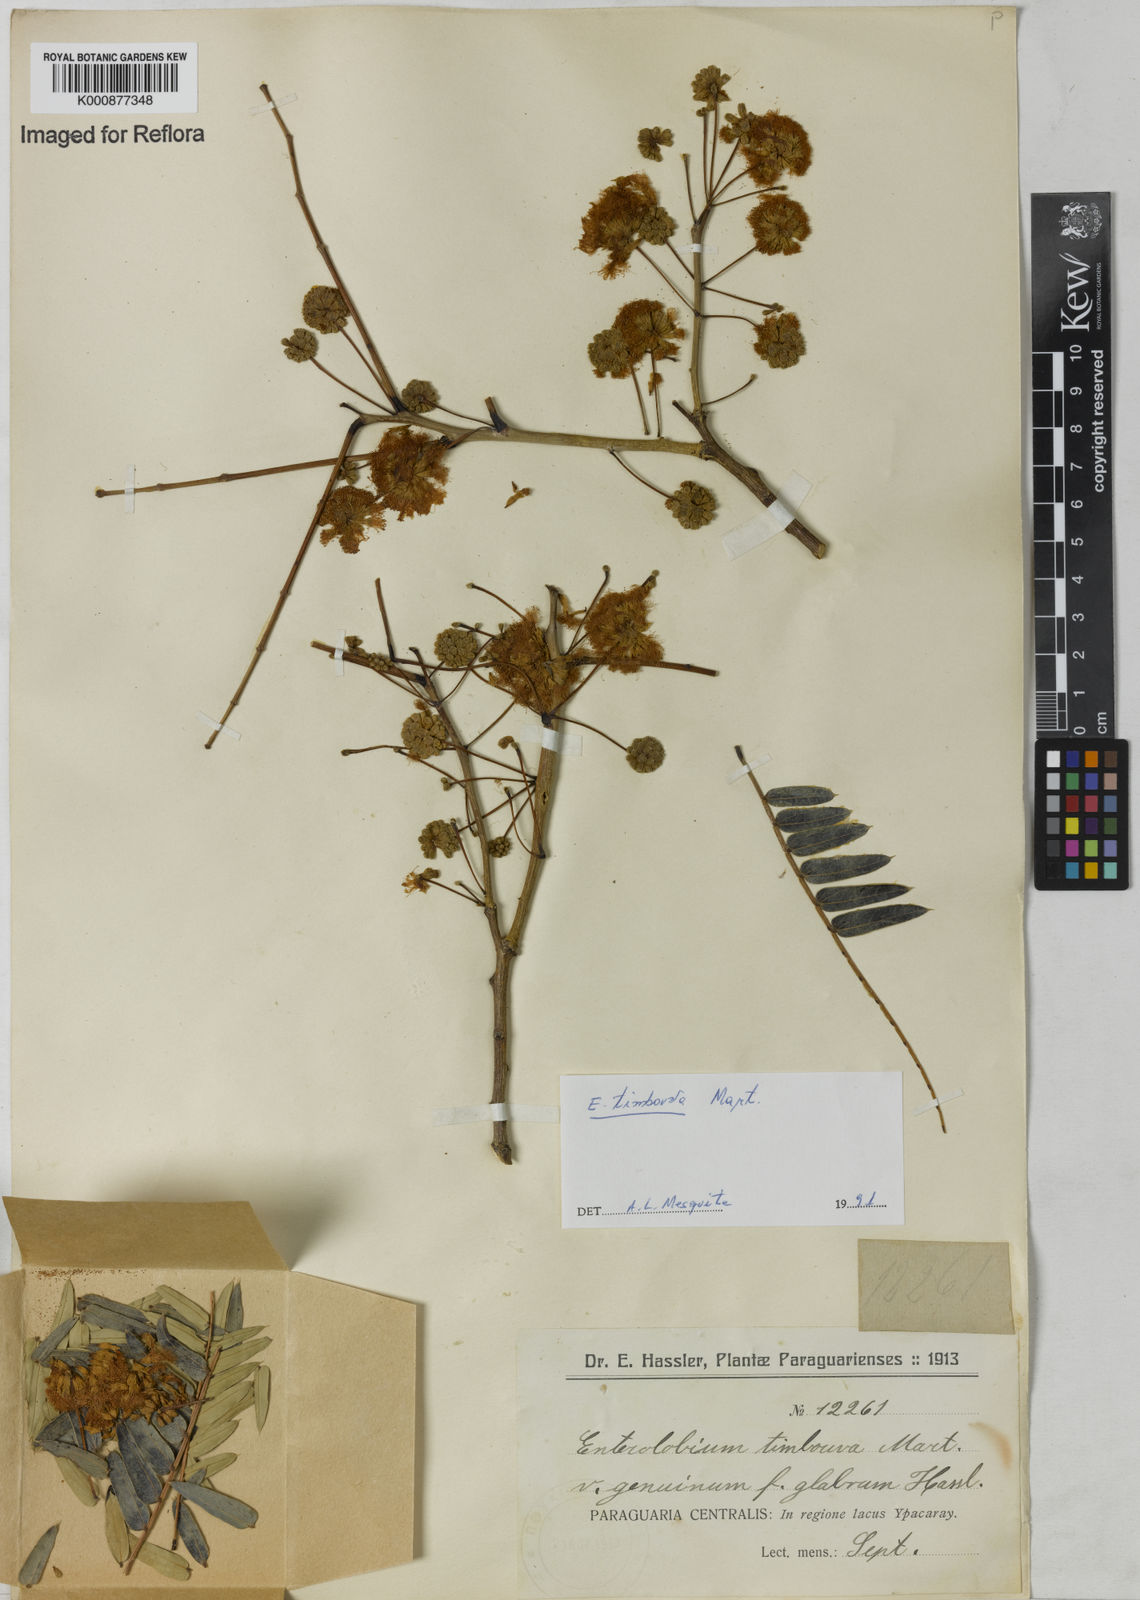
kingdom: Plantae
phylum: Tracheophyta
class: Magnoliopsida
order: Fabales
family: Fabaceae
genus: Enterolobium
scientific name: Enterolobium timbouva
